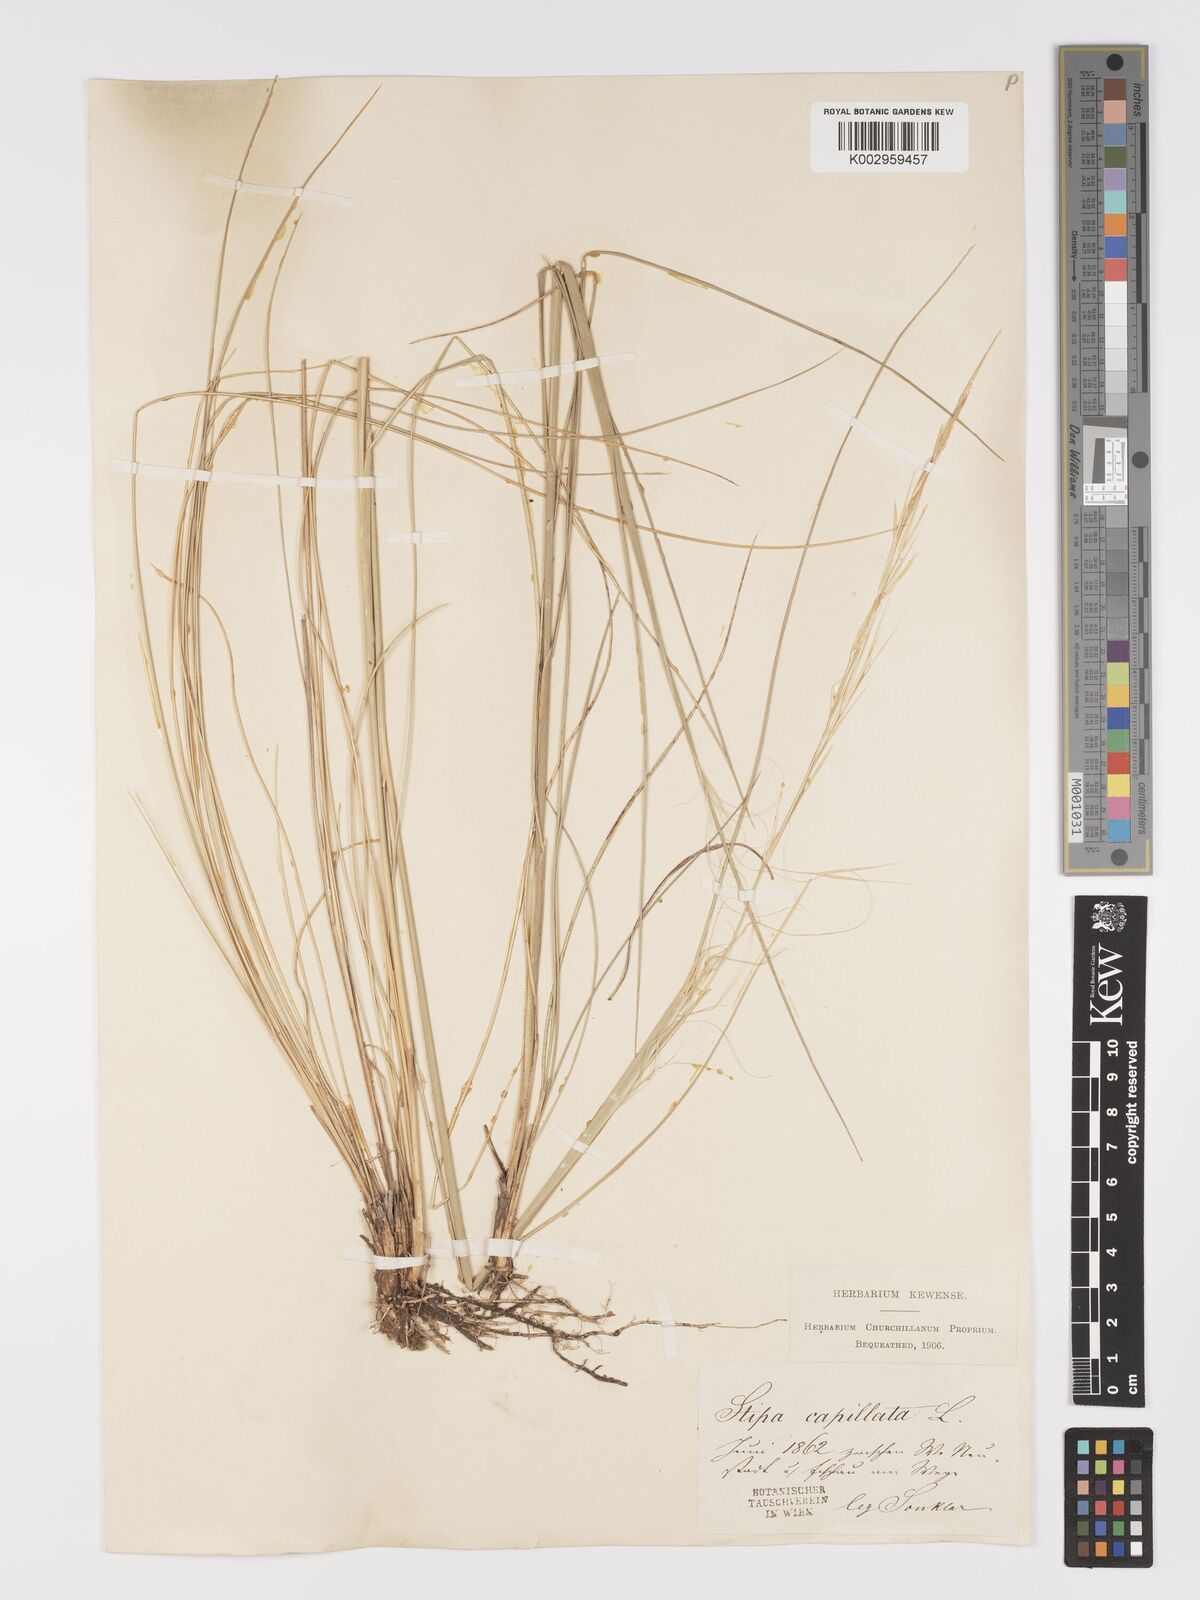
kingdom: Plantae
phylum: Tracheophyta
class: Liliopsida
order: Poales
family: Poaceae
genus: Stipa
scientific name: Stipa capillata
